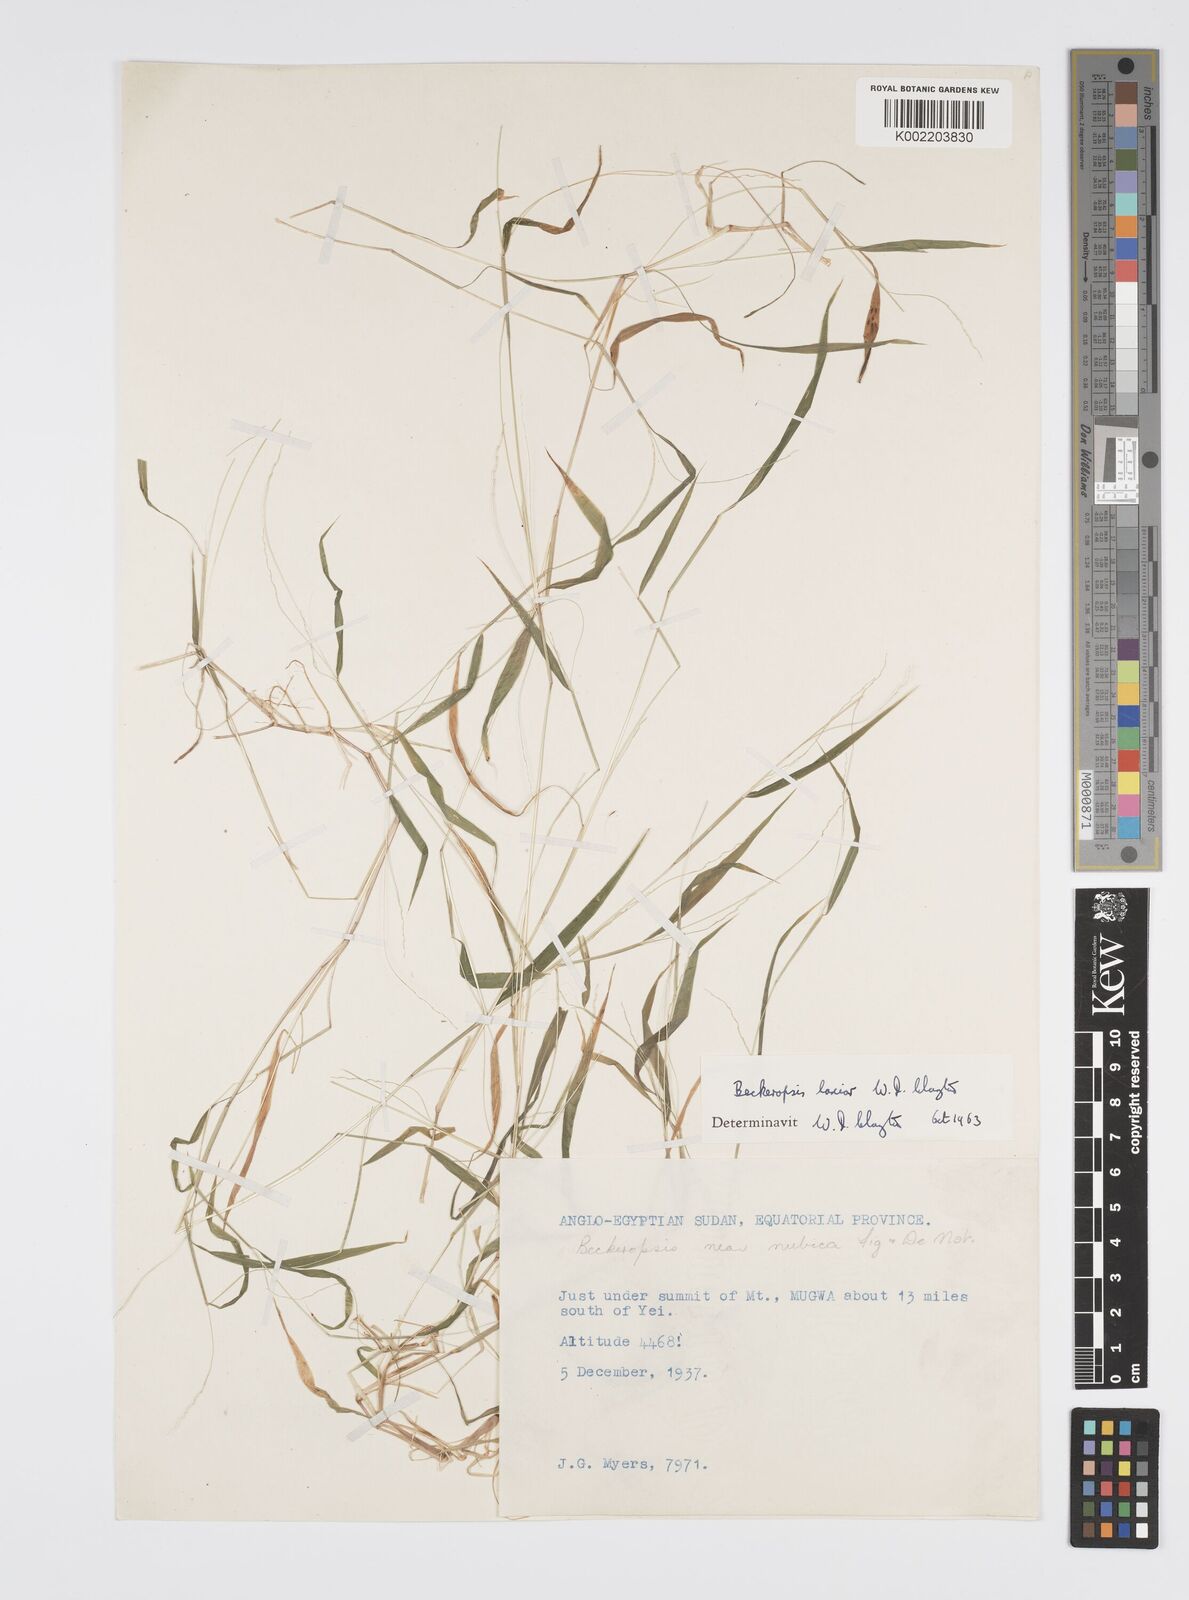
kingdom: Plantae
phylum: Tracheophyta
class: Liliopsida
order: Poales
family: Poaceae
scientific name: Poaceae
